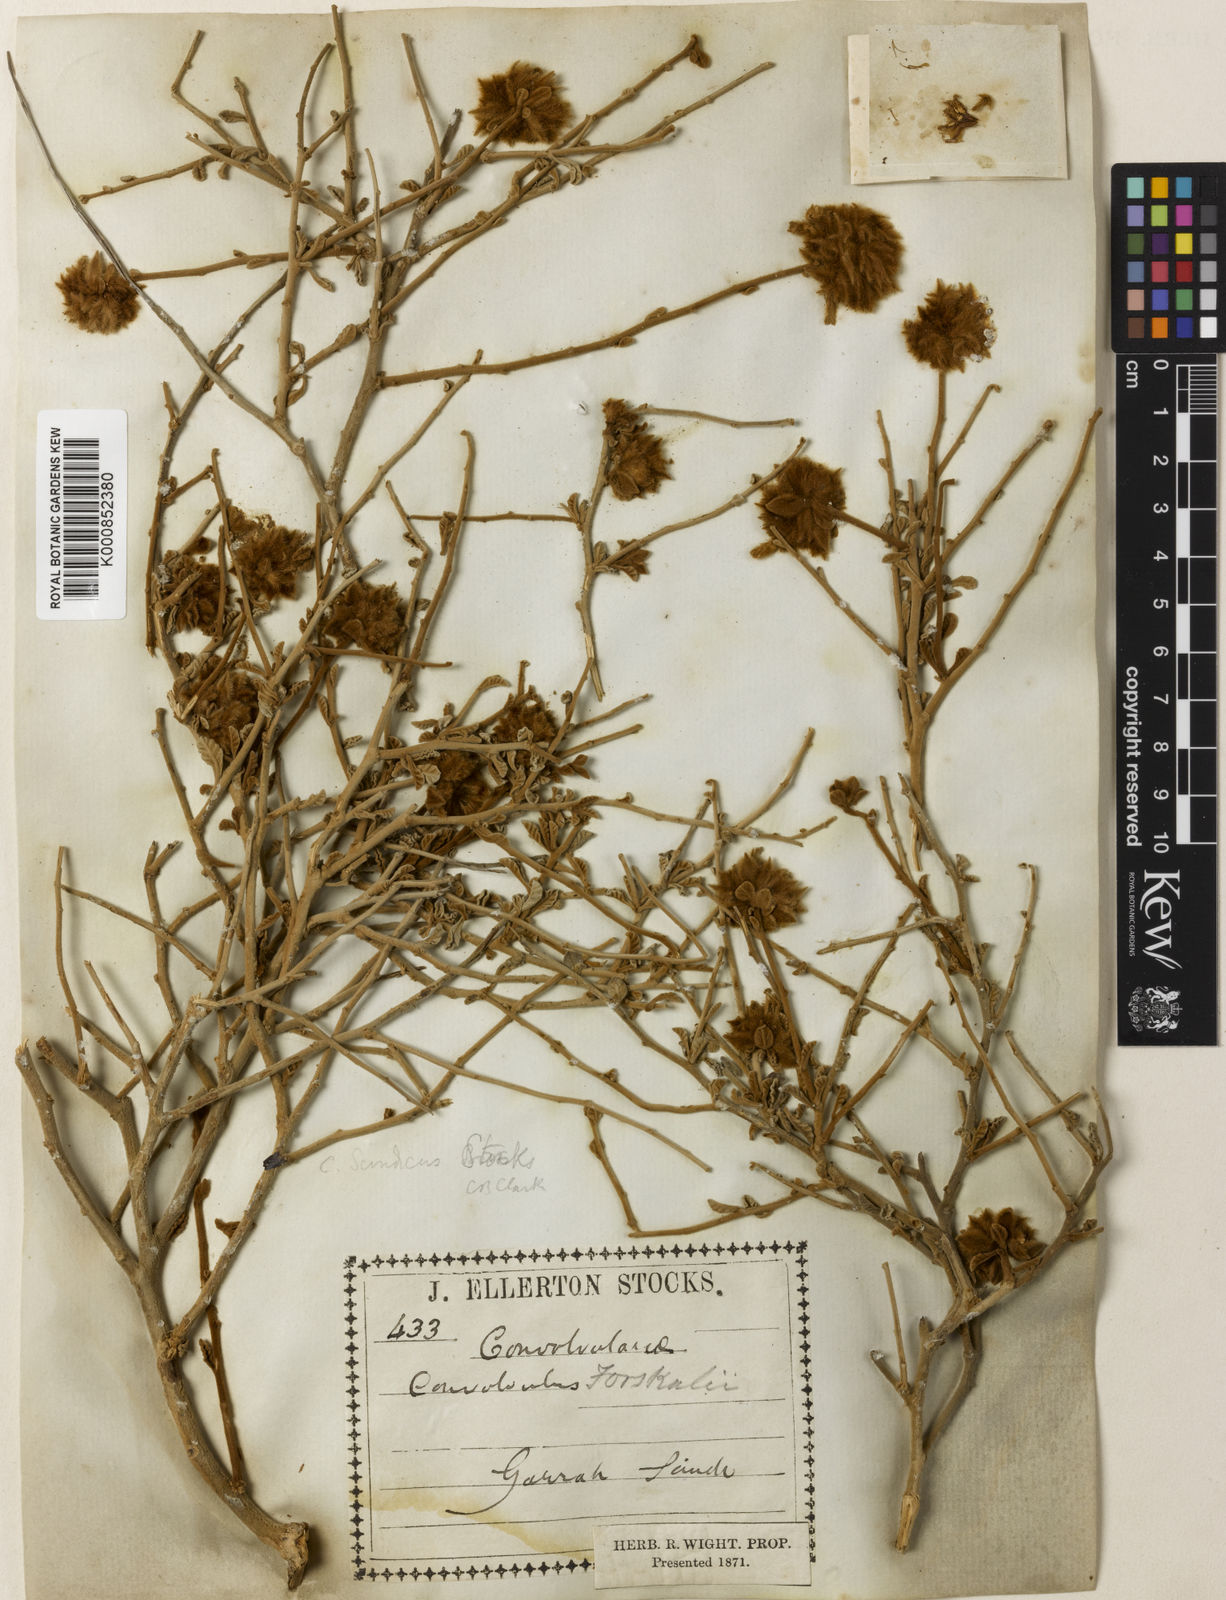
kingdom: Plantae
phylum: Tracheophyta
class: Magnoliopsida
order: Solanales
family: Convolvulaceae
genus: Ipomoea
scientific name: Ipomoea eriocarpa
